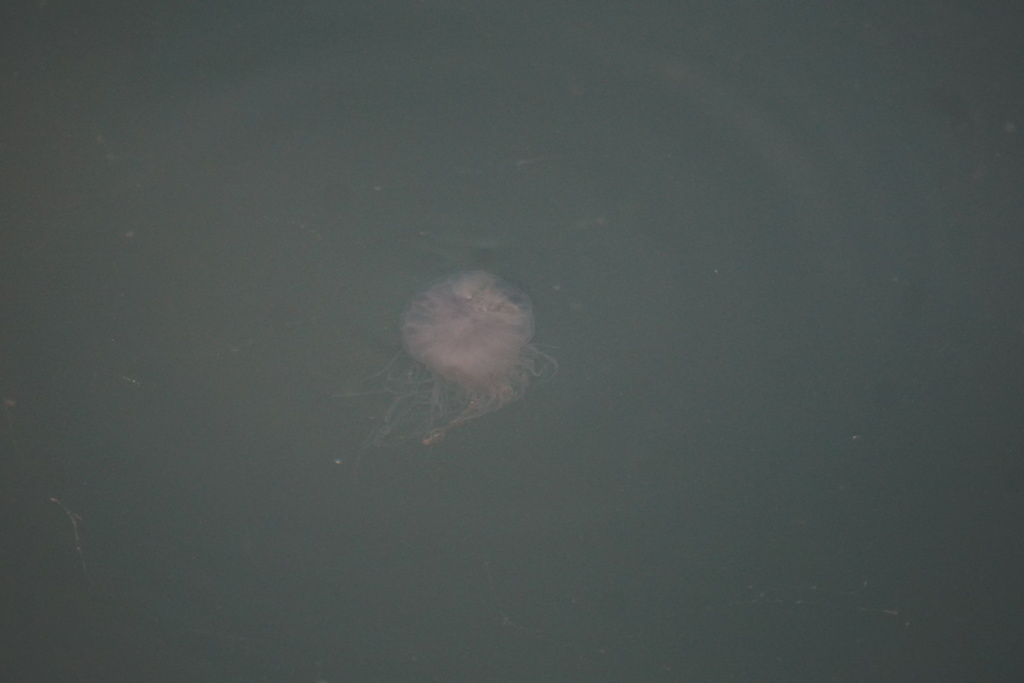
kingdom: Animalia
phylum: Cnidaria
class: Scyphozoa
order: Semaeostomeae
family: Cyaneidae
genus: Cyanea
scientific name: Cyanea nozakii
